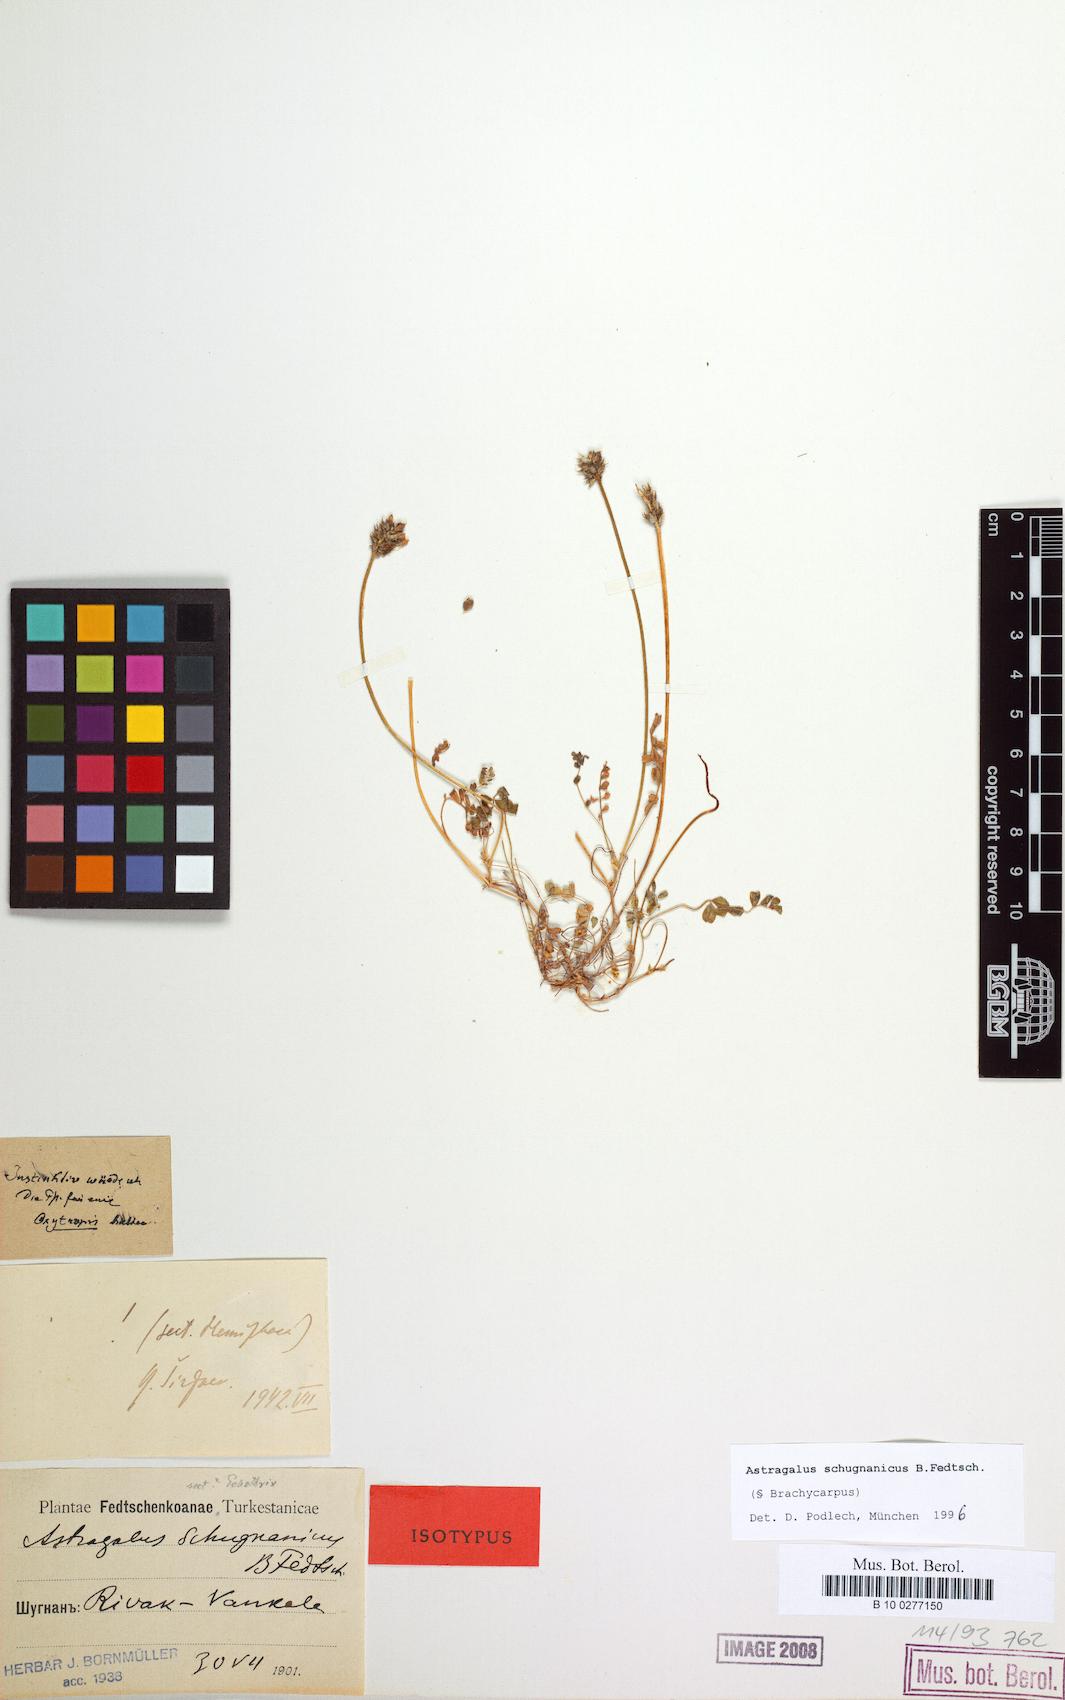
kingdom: Plantae
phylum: Tracheophyta
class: Magnoliopsida
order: Fabales
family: Fabaceae
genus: Astragalus
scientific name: Astragalus schugnanicus
